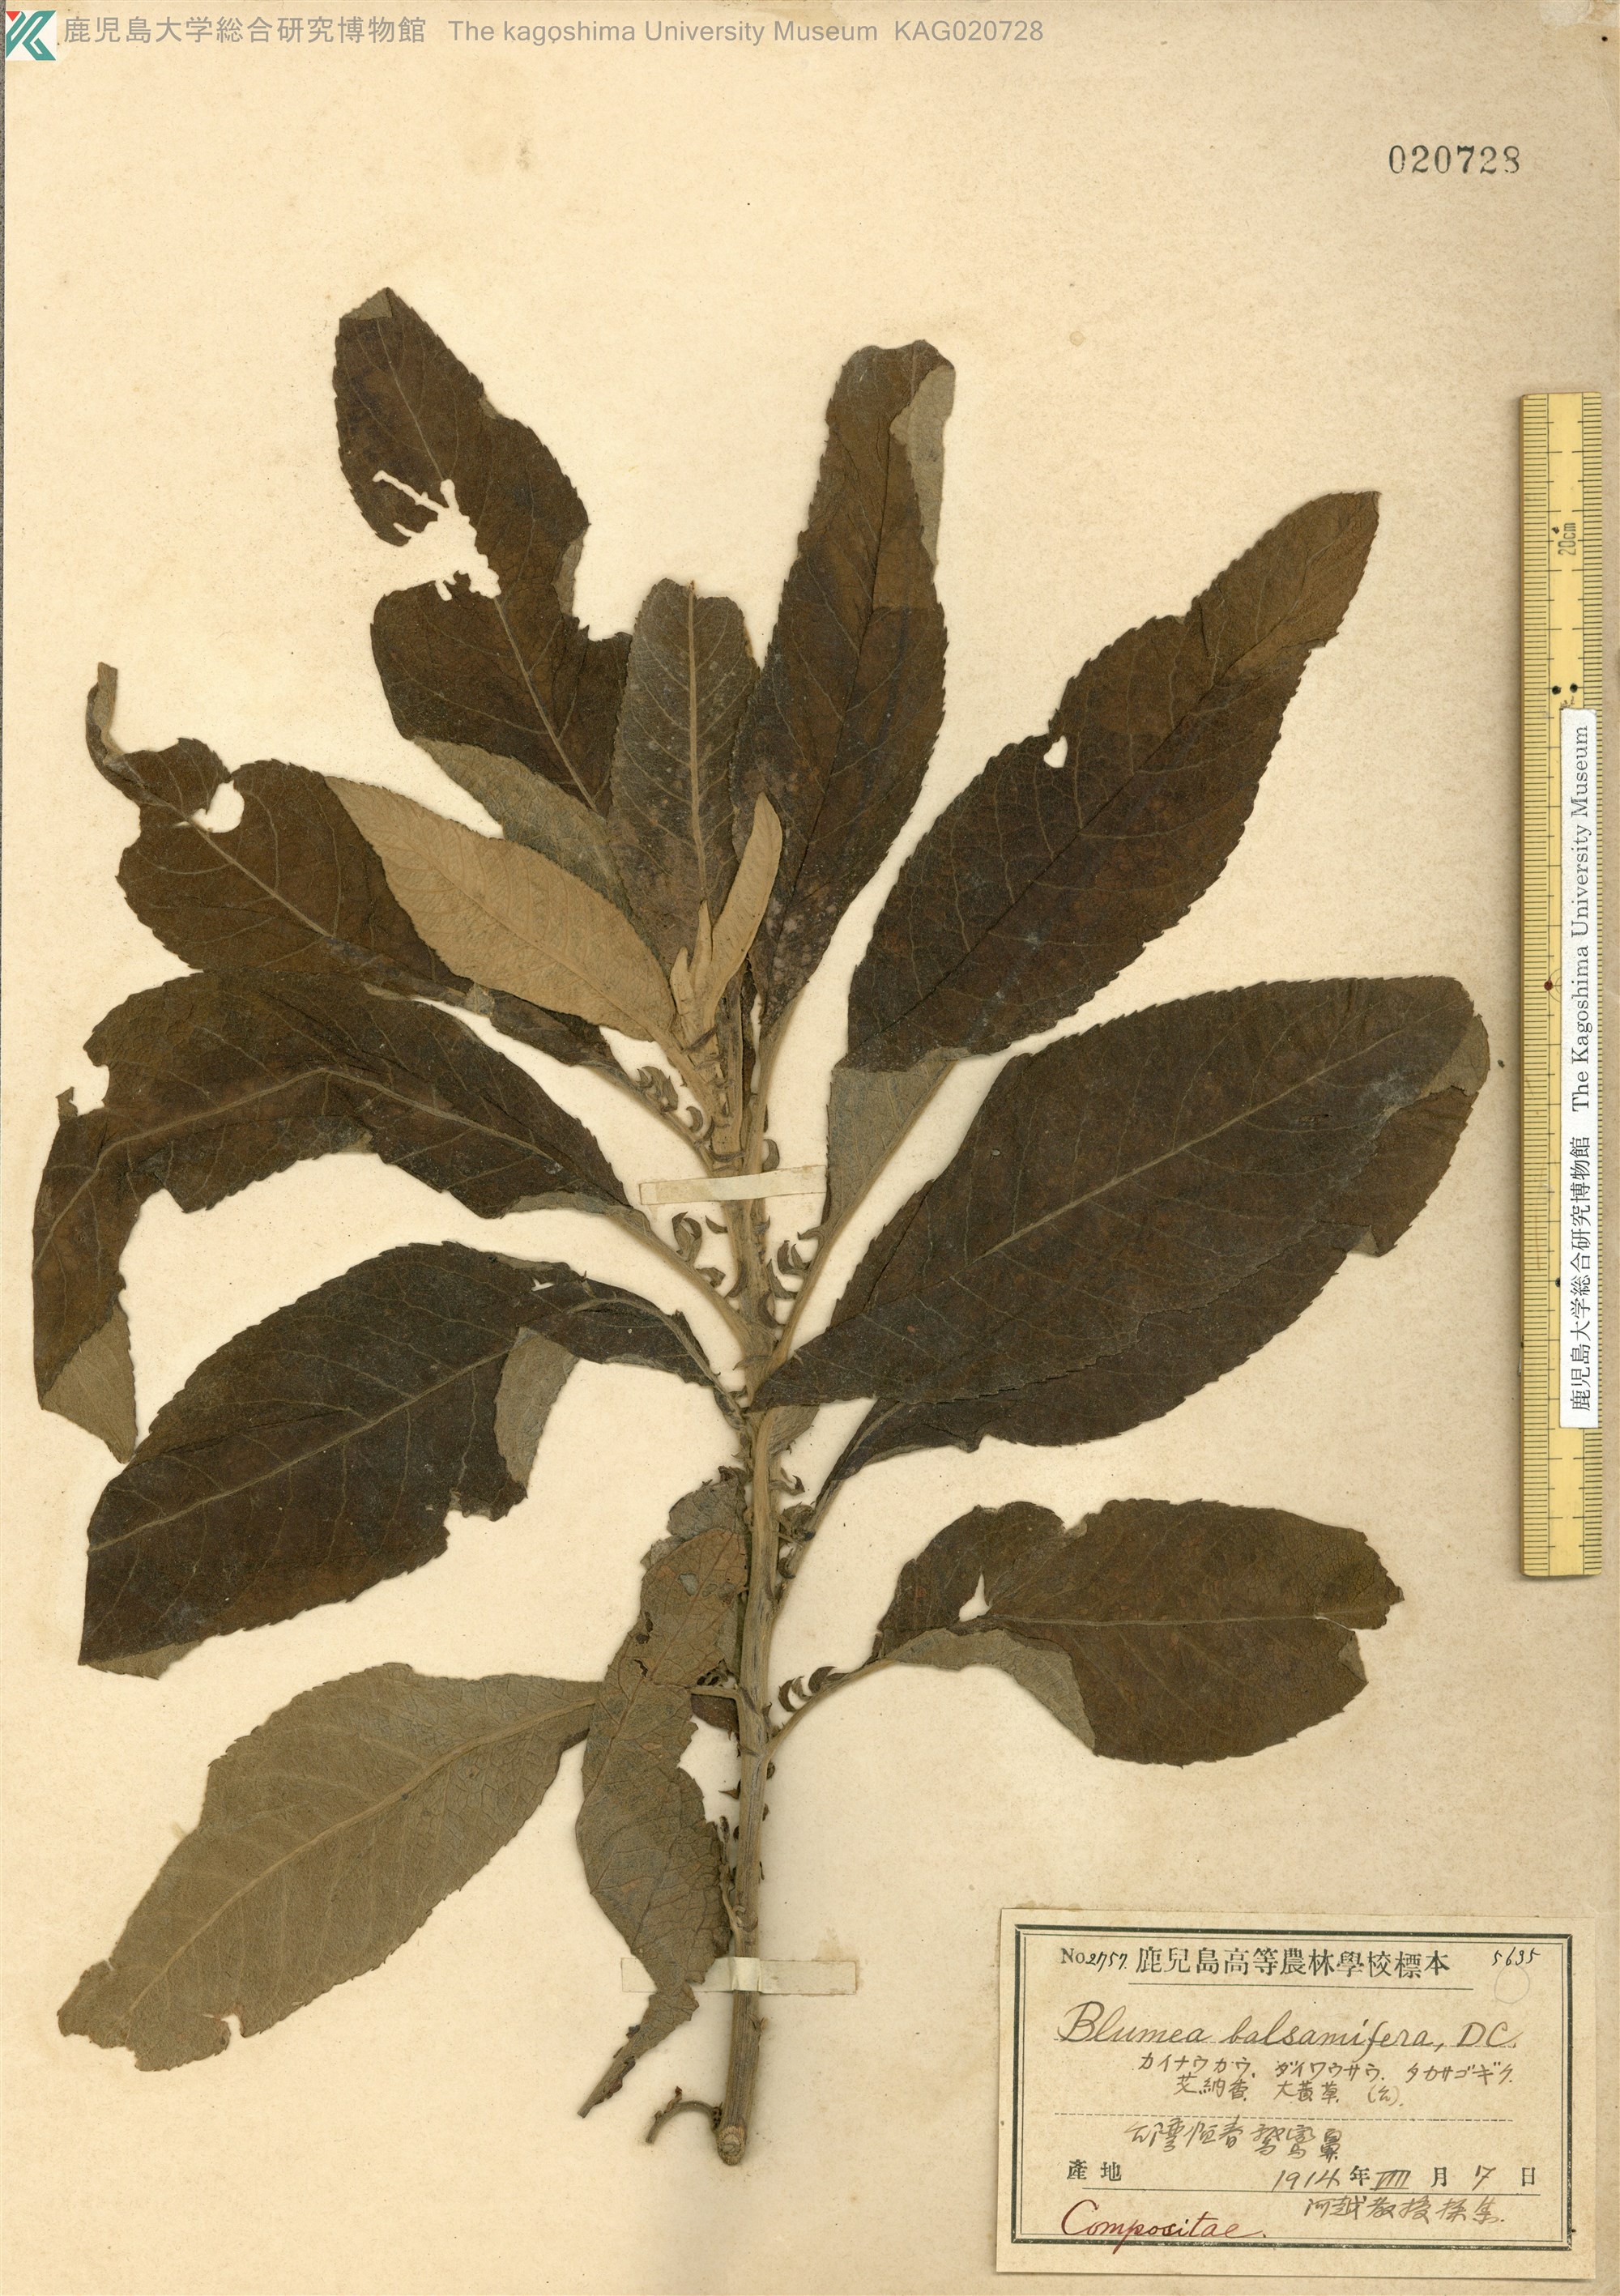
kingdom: Plantae
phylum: Tracheophyta
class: Magnoliopsida
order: Asterales
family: Asteraceae
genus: Blumea
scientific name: Blumea balsamifera
